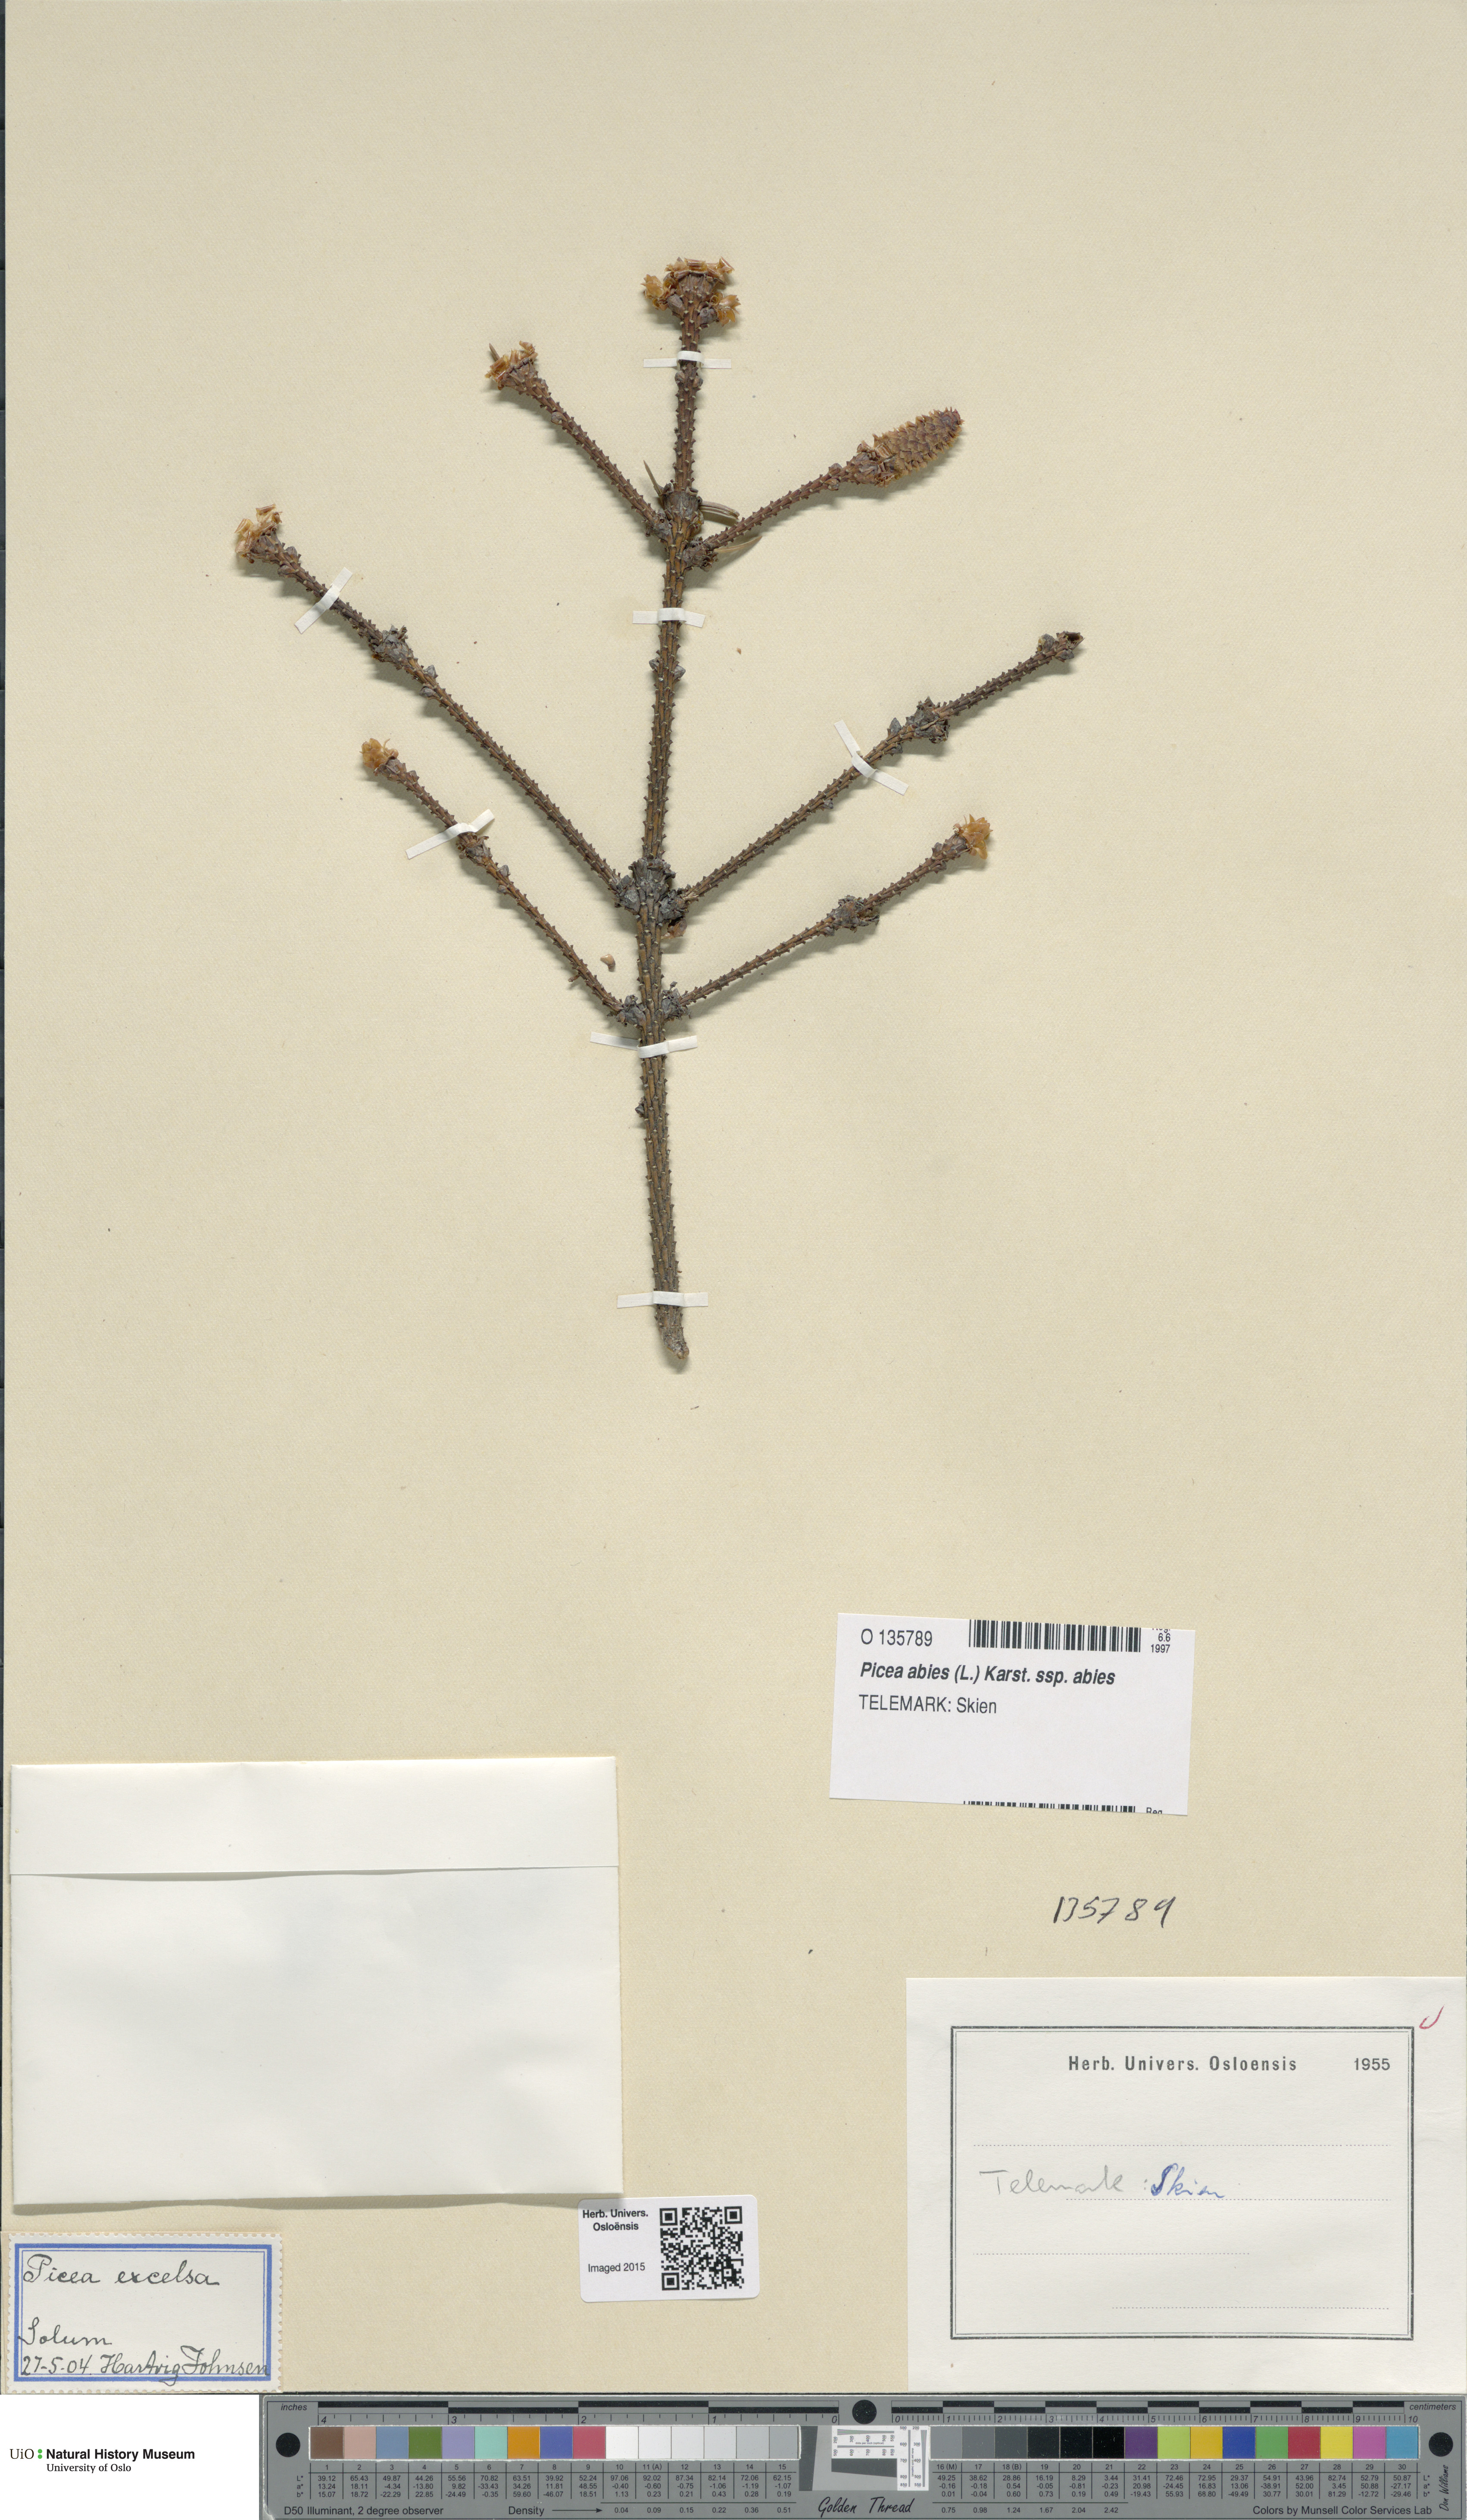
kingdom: Plantae
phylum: Tracheophyta
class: Pinopsida
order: Pinales
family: Pinaceae
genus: Picea
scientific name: Picea abies
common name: Norway spruce
